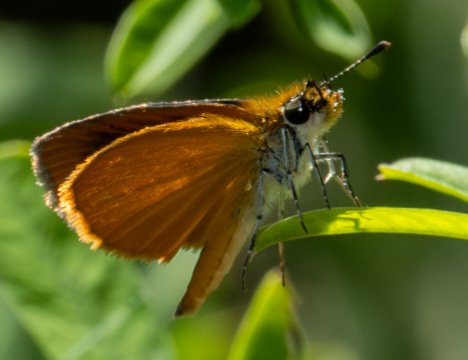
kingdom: Animalia
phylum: Arthropoda
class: Insecta
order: Lepidoptera
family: Hesperiidae
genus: Ancyloxypha
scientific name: Ancyloxypha numitor
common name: Least Skipper
